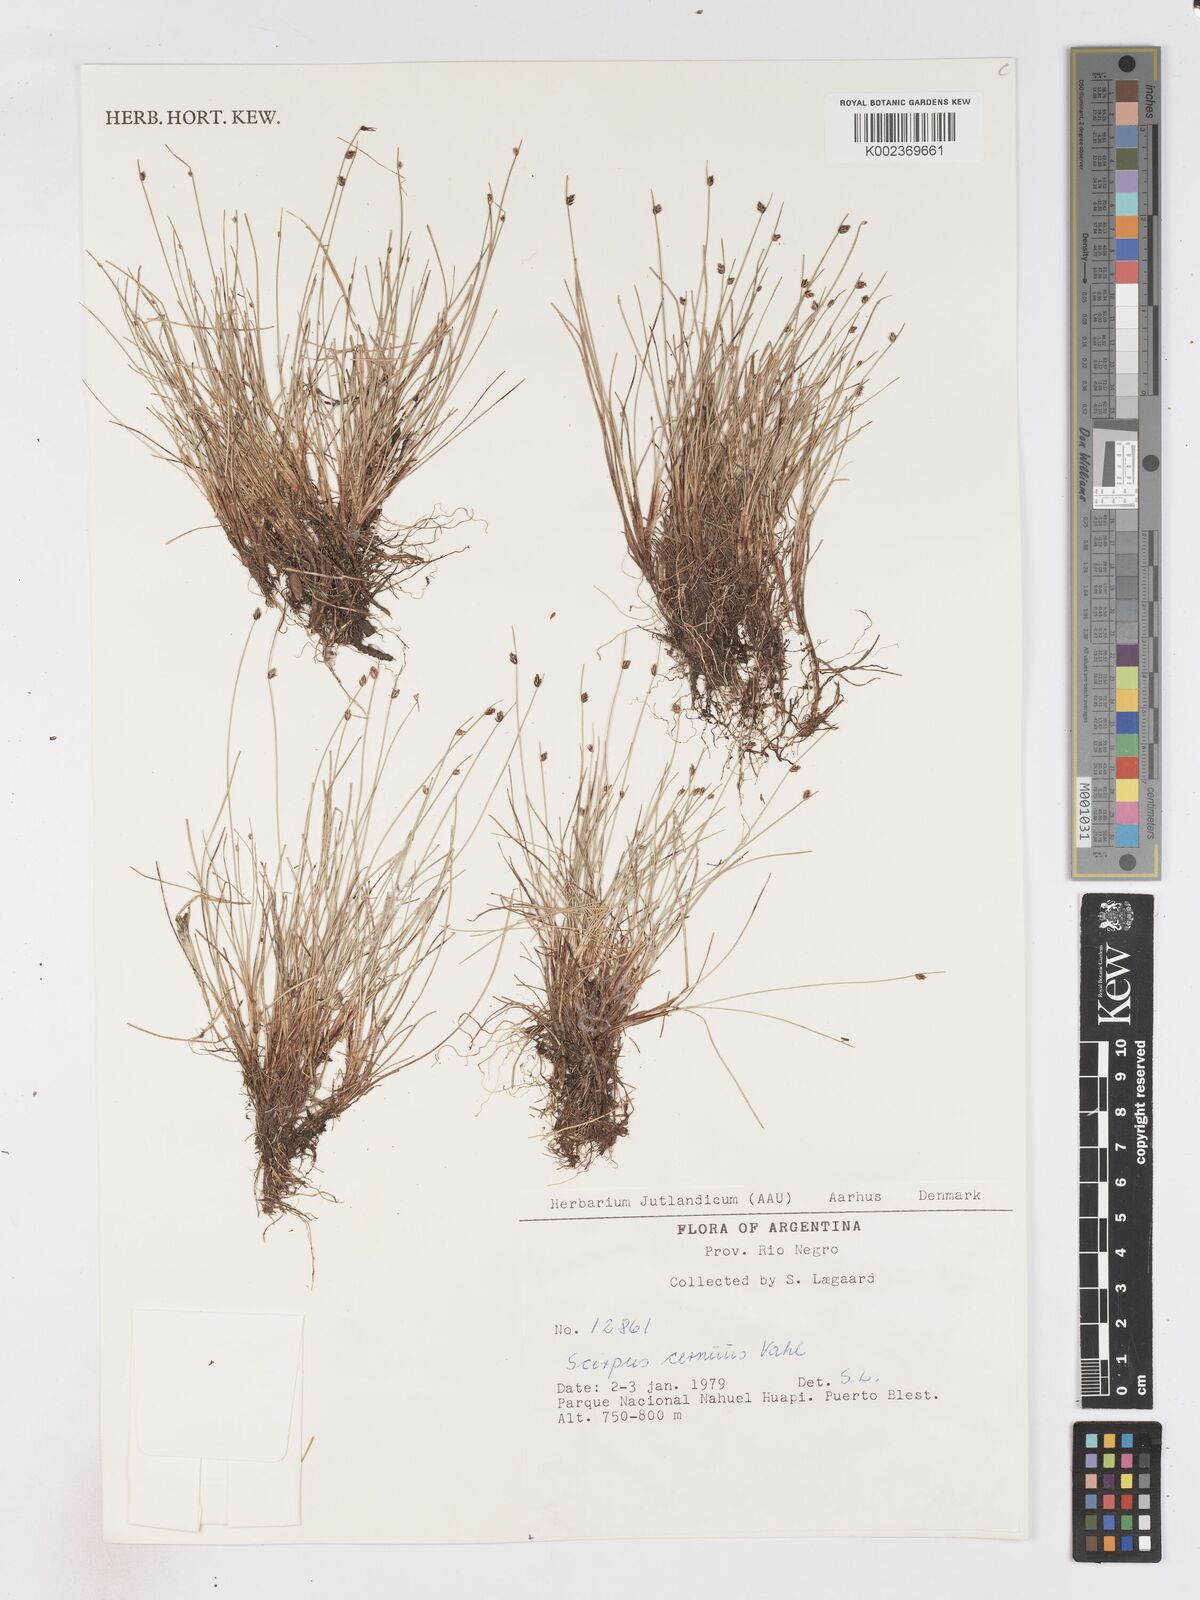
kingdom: Plantae
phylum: Tracheophyta
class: Liliopsida
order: Poales
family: Cyperaceae
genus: Isolepis
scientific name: Isolepis cernua
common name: Slender club-rush
